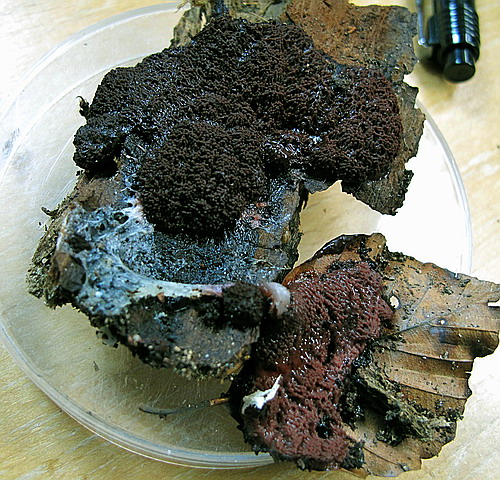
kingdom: Protozoa
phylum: Mycetozoa
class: Myxomycetes
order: Stemonitidales
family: Stemonitidaceae
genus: Symphytocarpus
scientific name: Symphytocarpus amaurochaetoides
